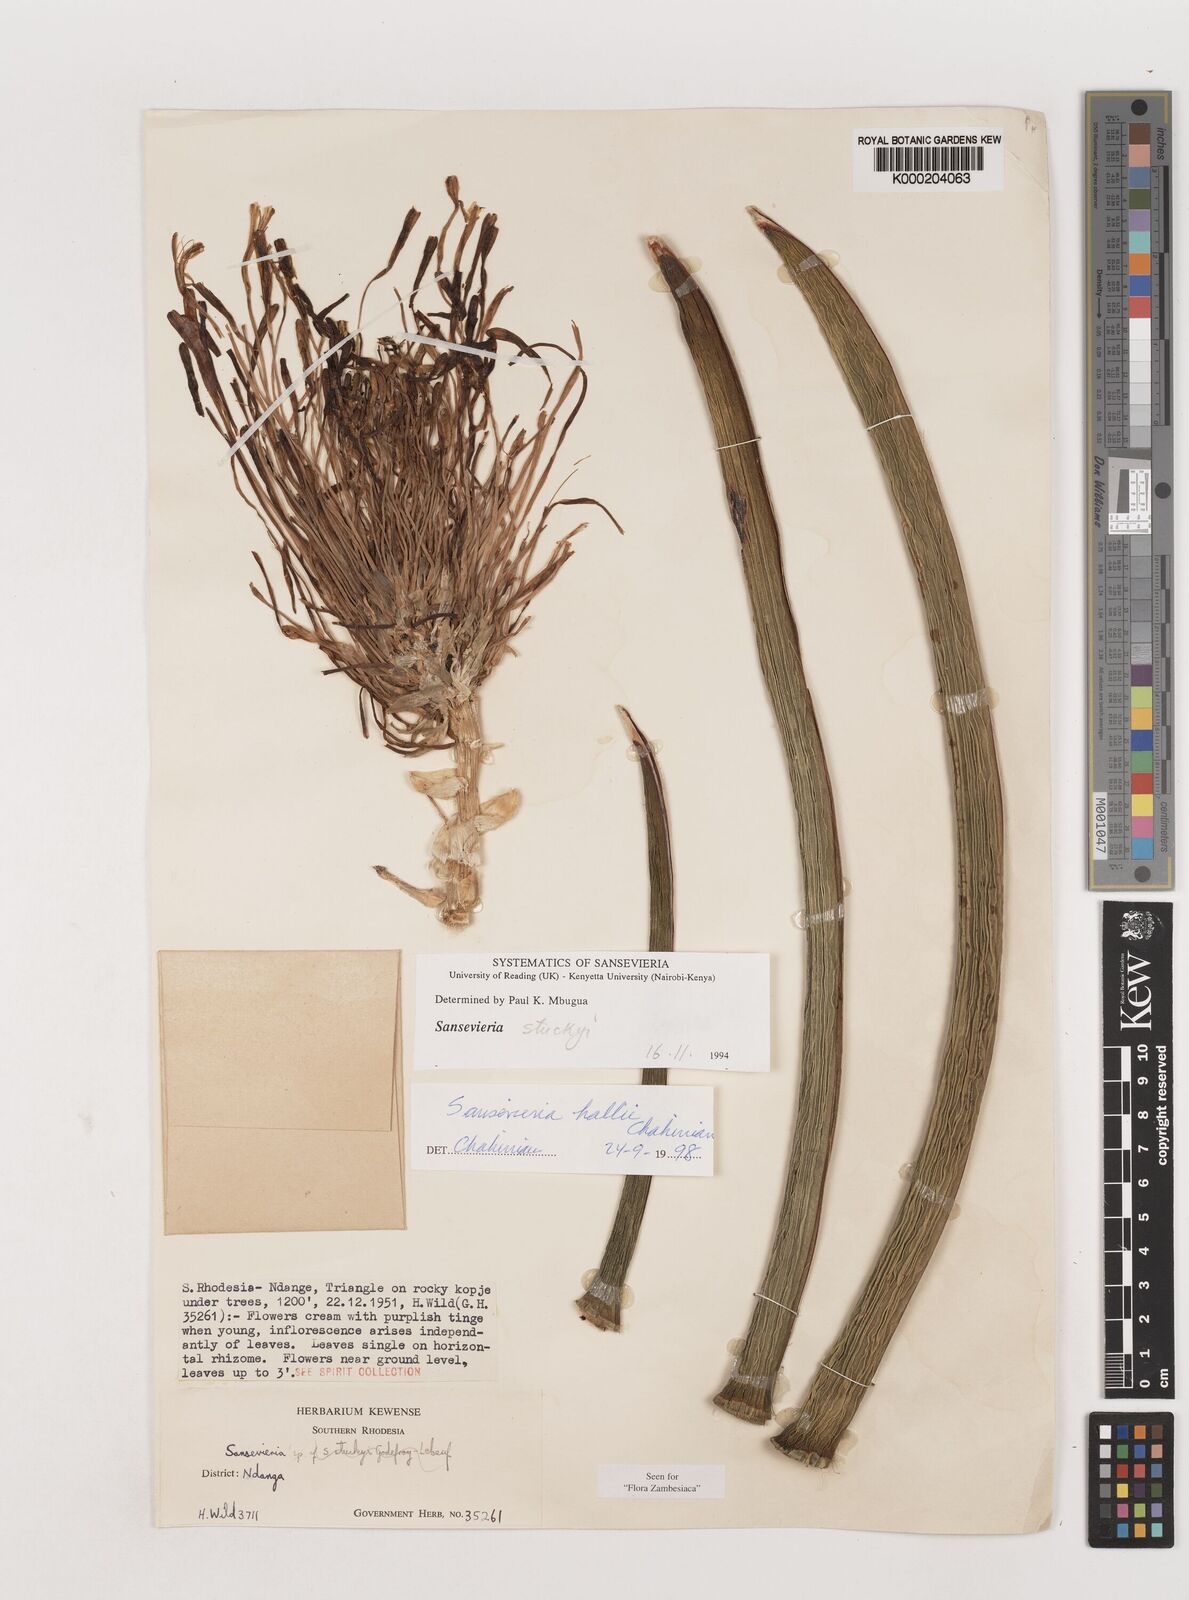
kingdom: Plantae
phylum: Tracheophyta
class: Liliopsida
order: Asparagales
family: Asparagaceae
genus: Dracaena
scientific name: Dracaena hallii
